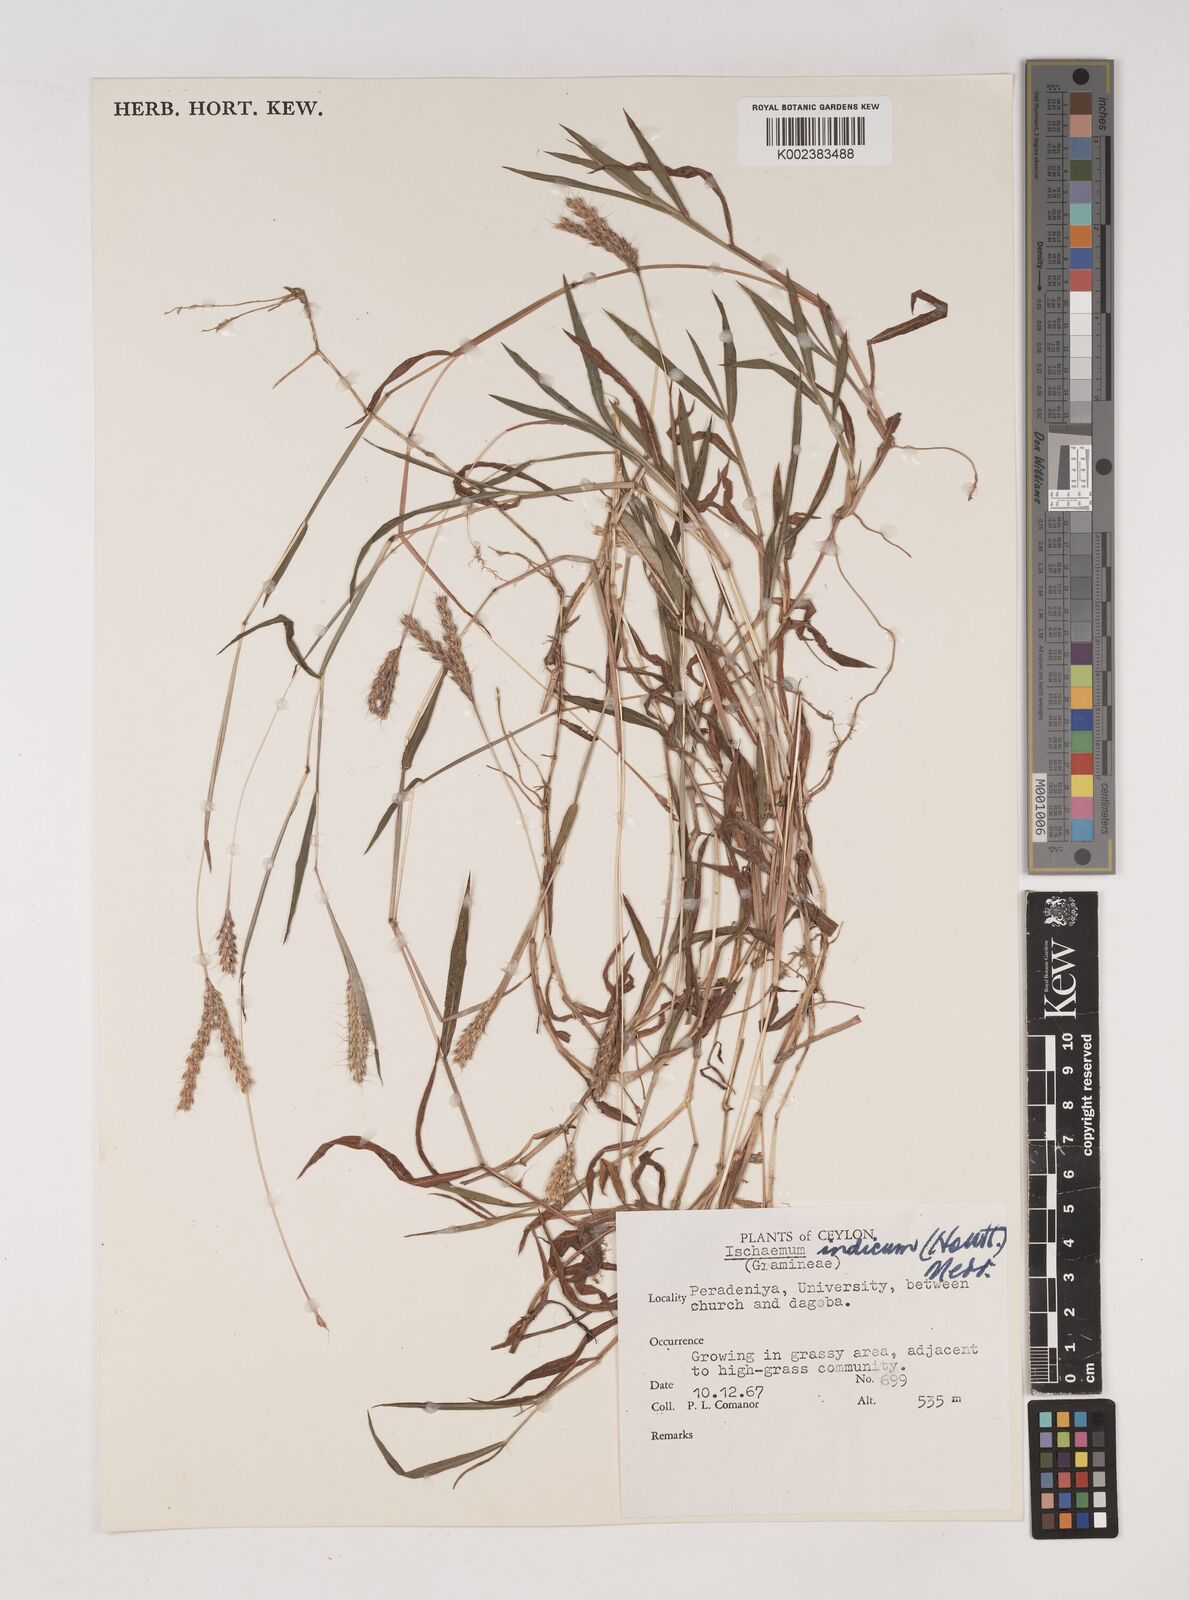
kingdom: Plantae
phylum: Tracheophyta
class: Liliopsida
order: Poales
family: Poaceae
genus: Polytrias
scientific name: Polytrias indica
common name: Indian murainagrass
